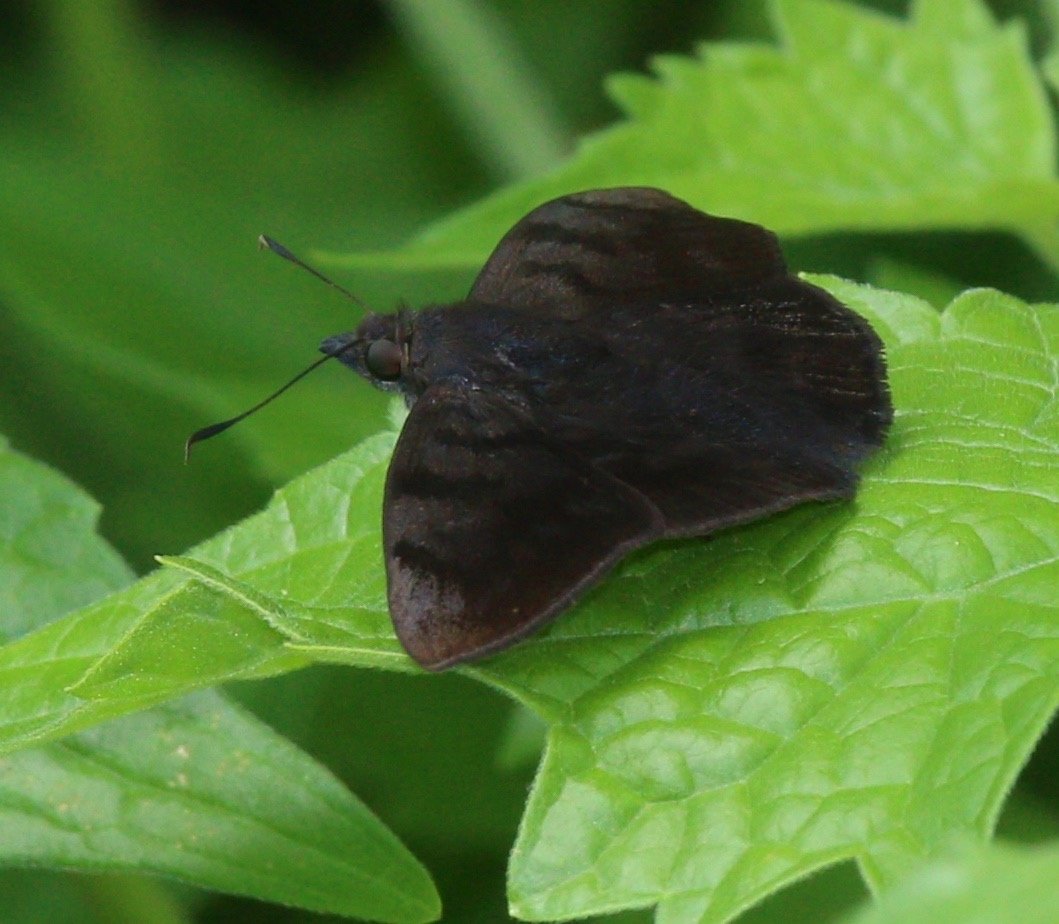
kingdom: Animalia
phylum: Arthropoda
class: Insecta
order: Lepidoptera
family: Hesperiidae
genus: Pellicia
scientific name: Pellicia costimacula
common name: Glazed Pellicia
